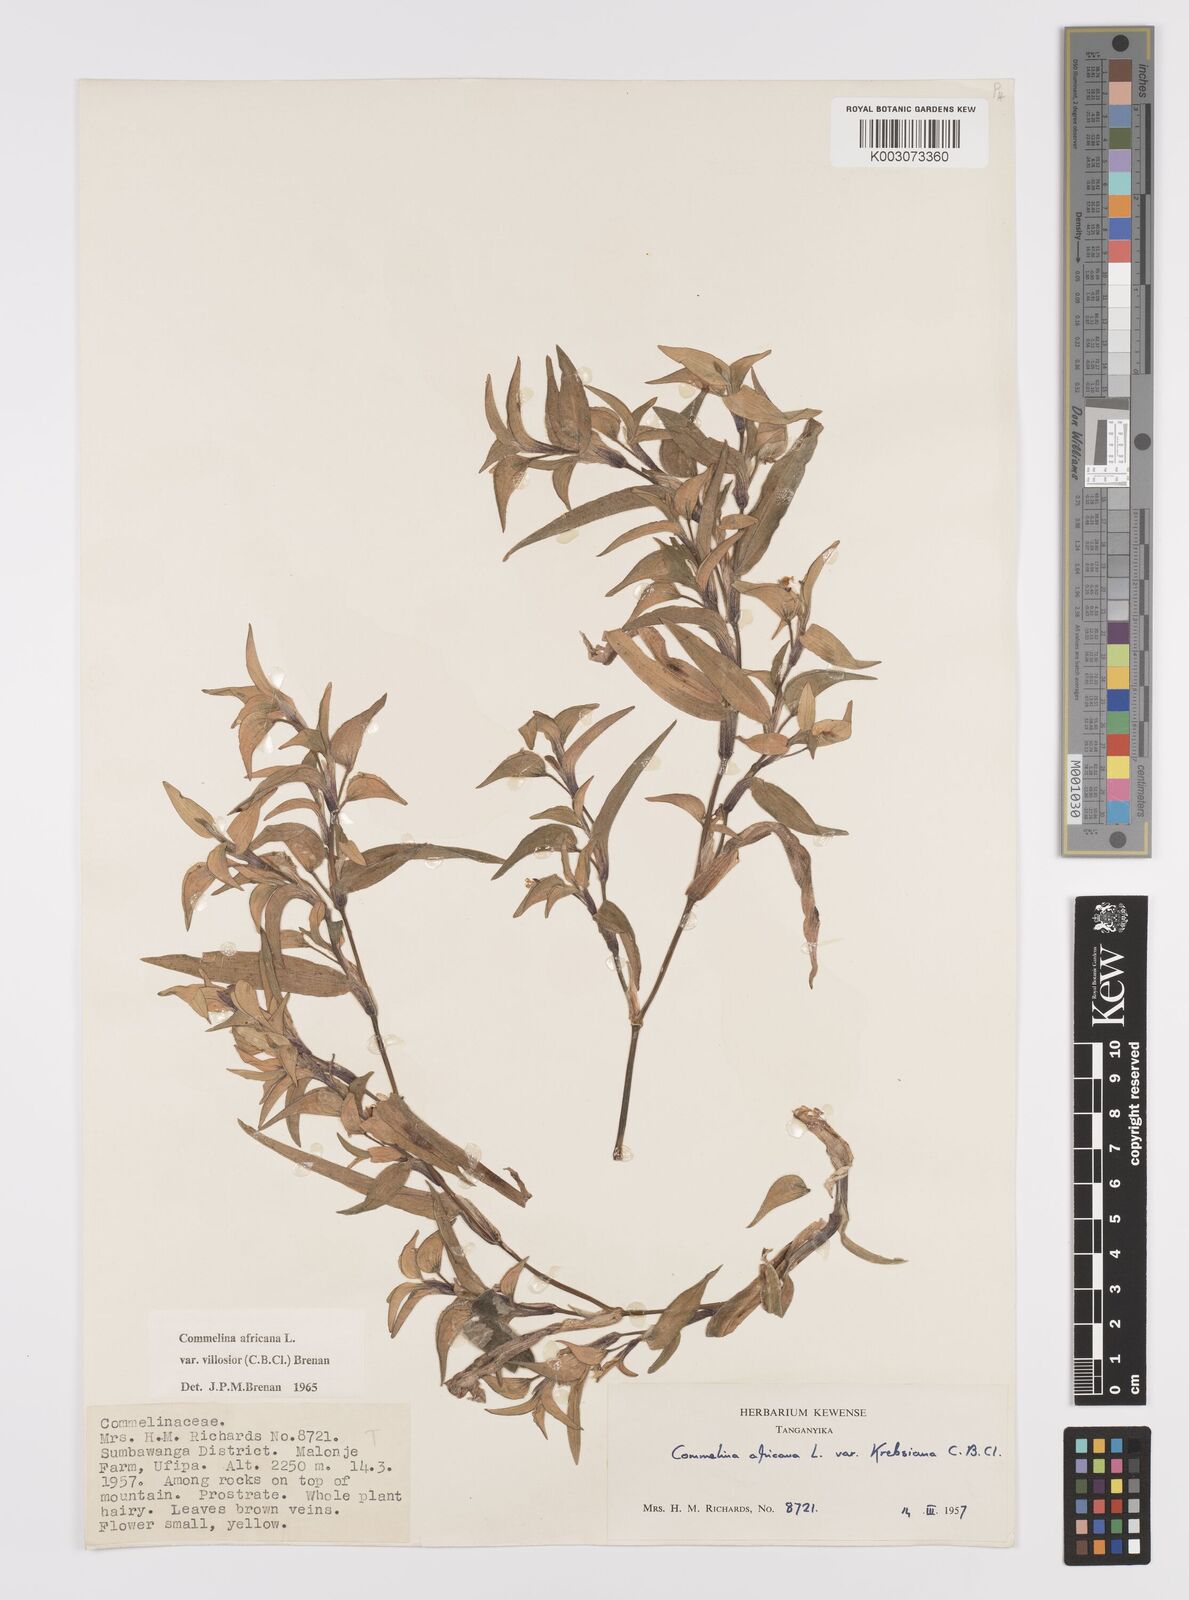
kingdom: Plantae
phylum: Tracheophyta
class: Liliopsida
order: Commelinales
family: Commelinaceae
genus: Commelina
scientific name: Commelina africana
